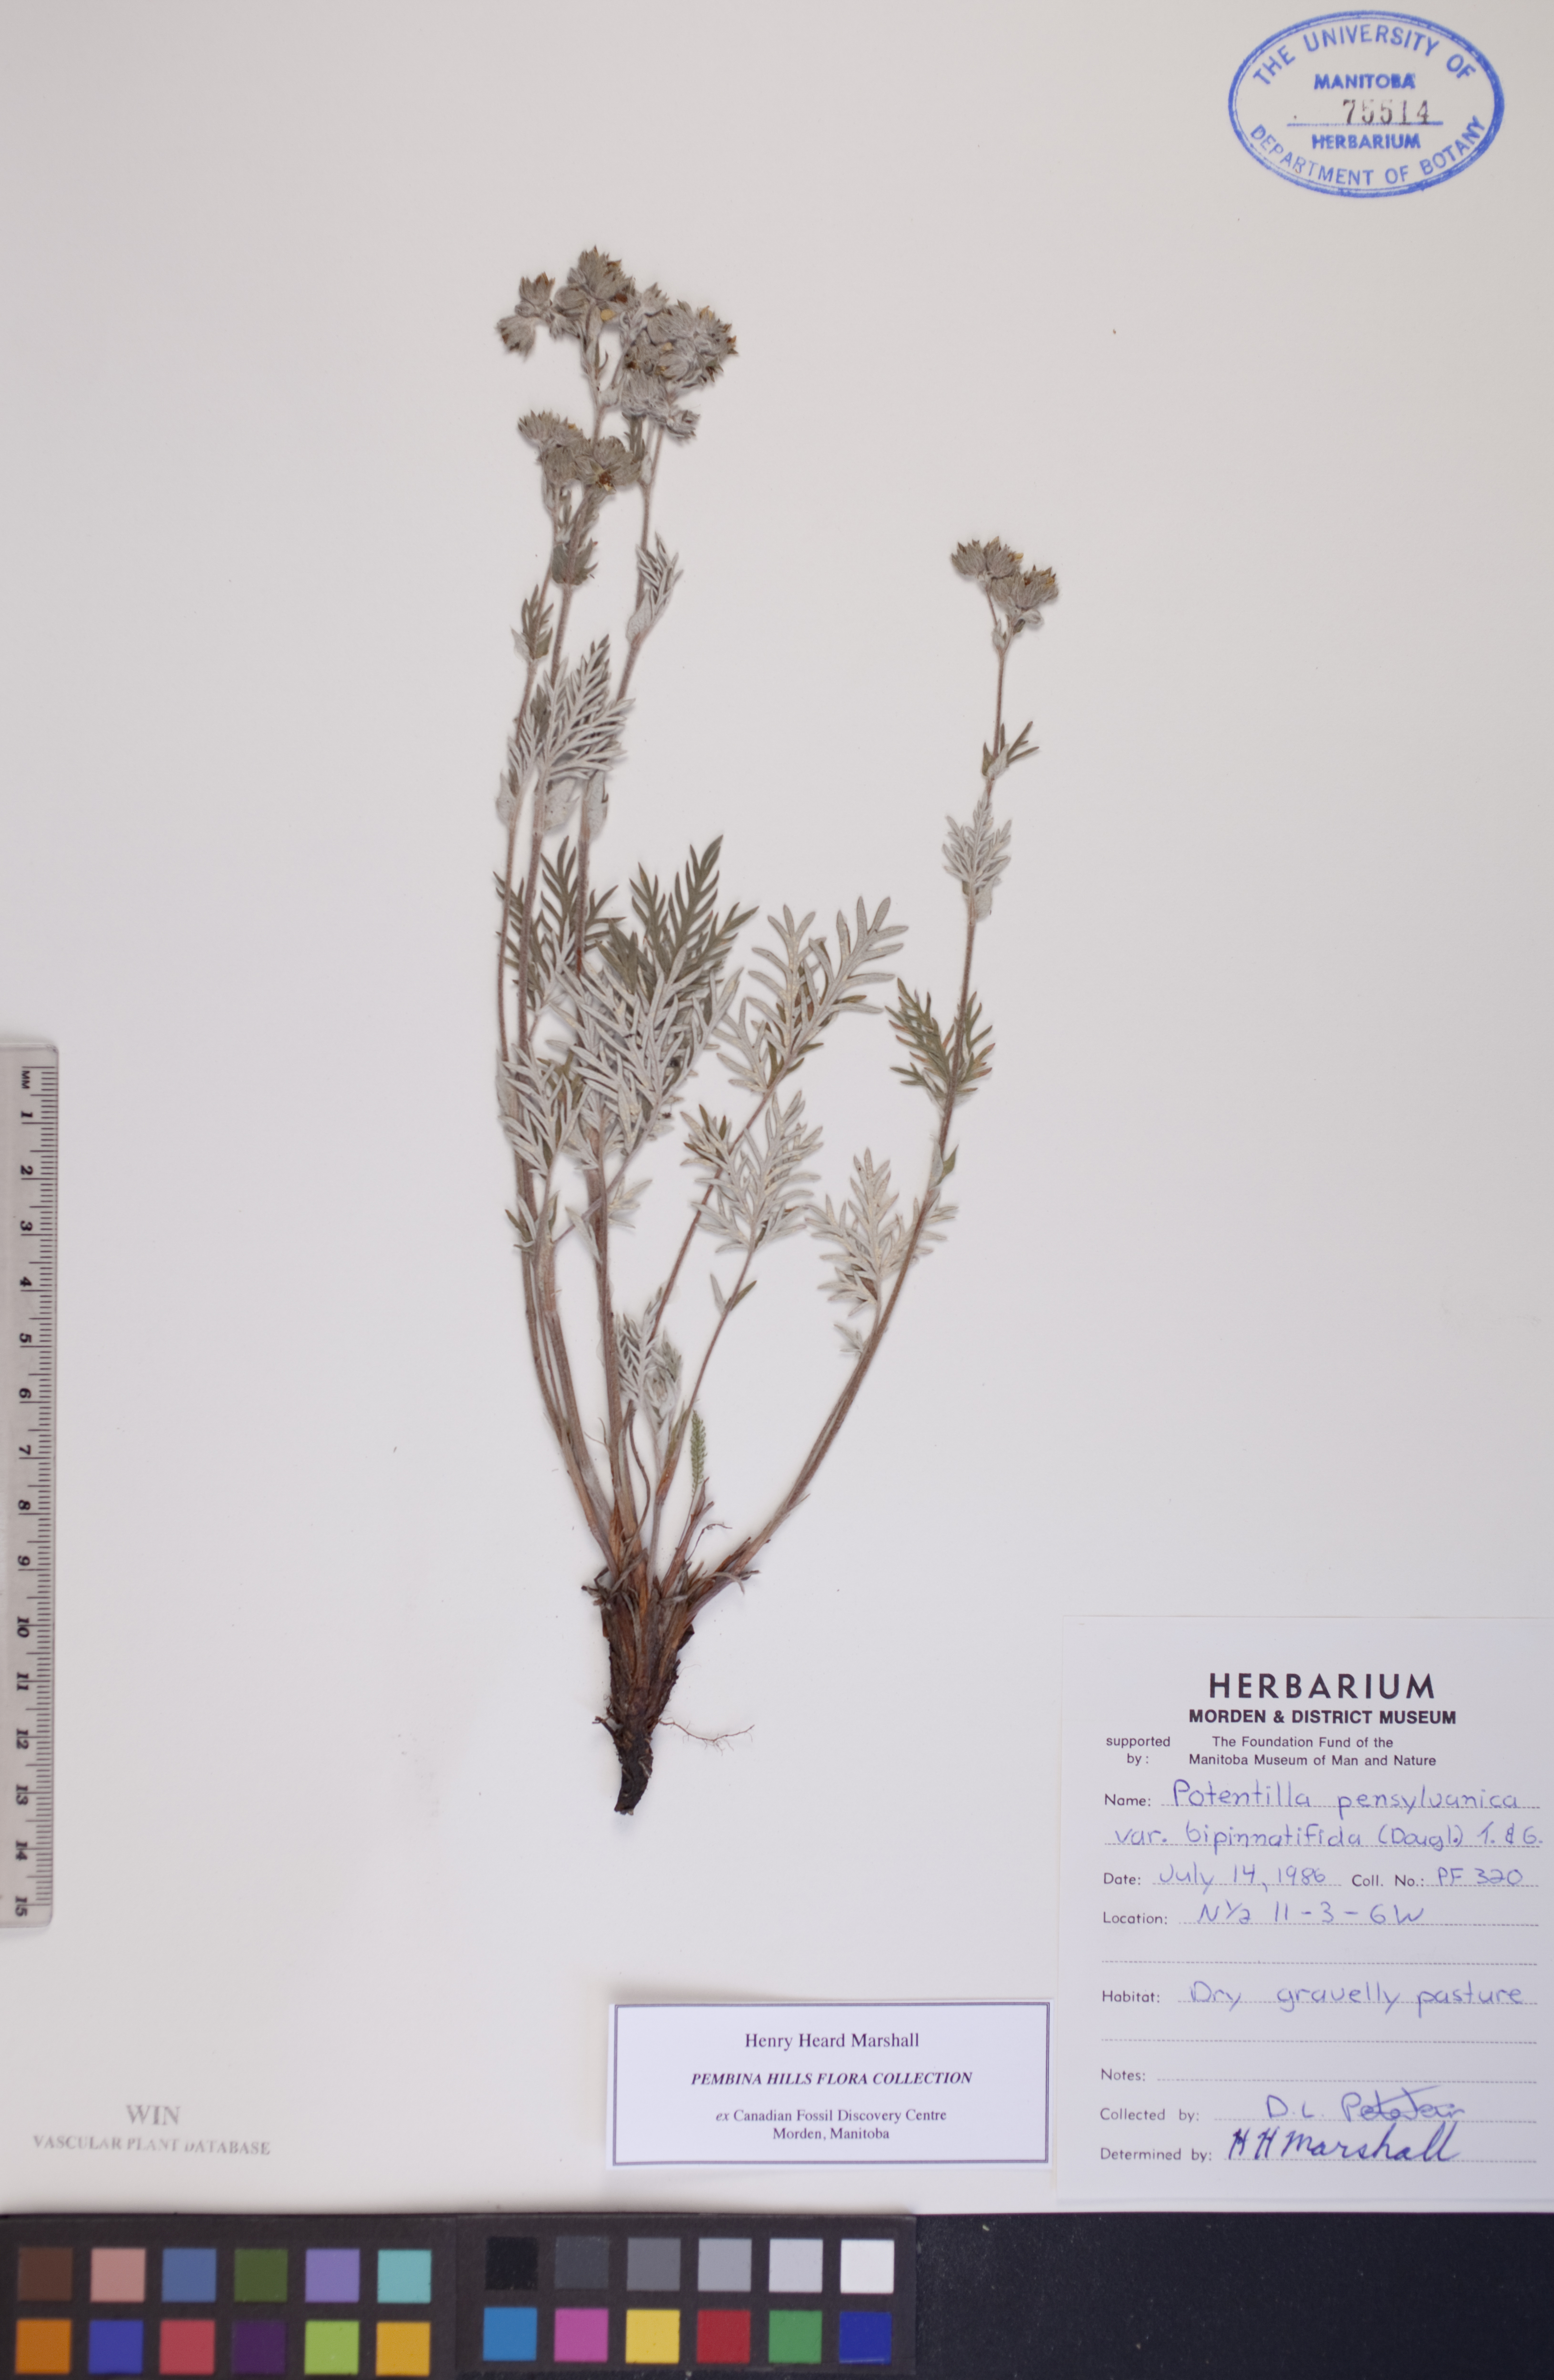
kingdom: Plantae
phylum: Tracheophyta
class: Magnoliopsida
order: Rosales
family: Rosaceae
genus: Potentilla
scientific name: Potentilla pensylvanica
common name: Pennsylvania cinquefoil
